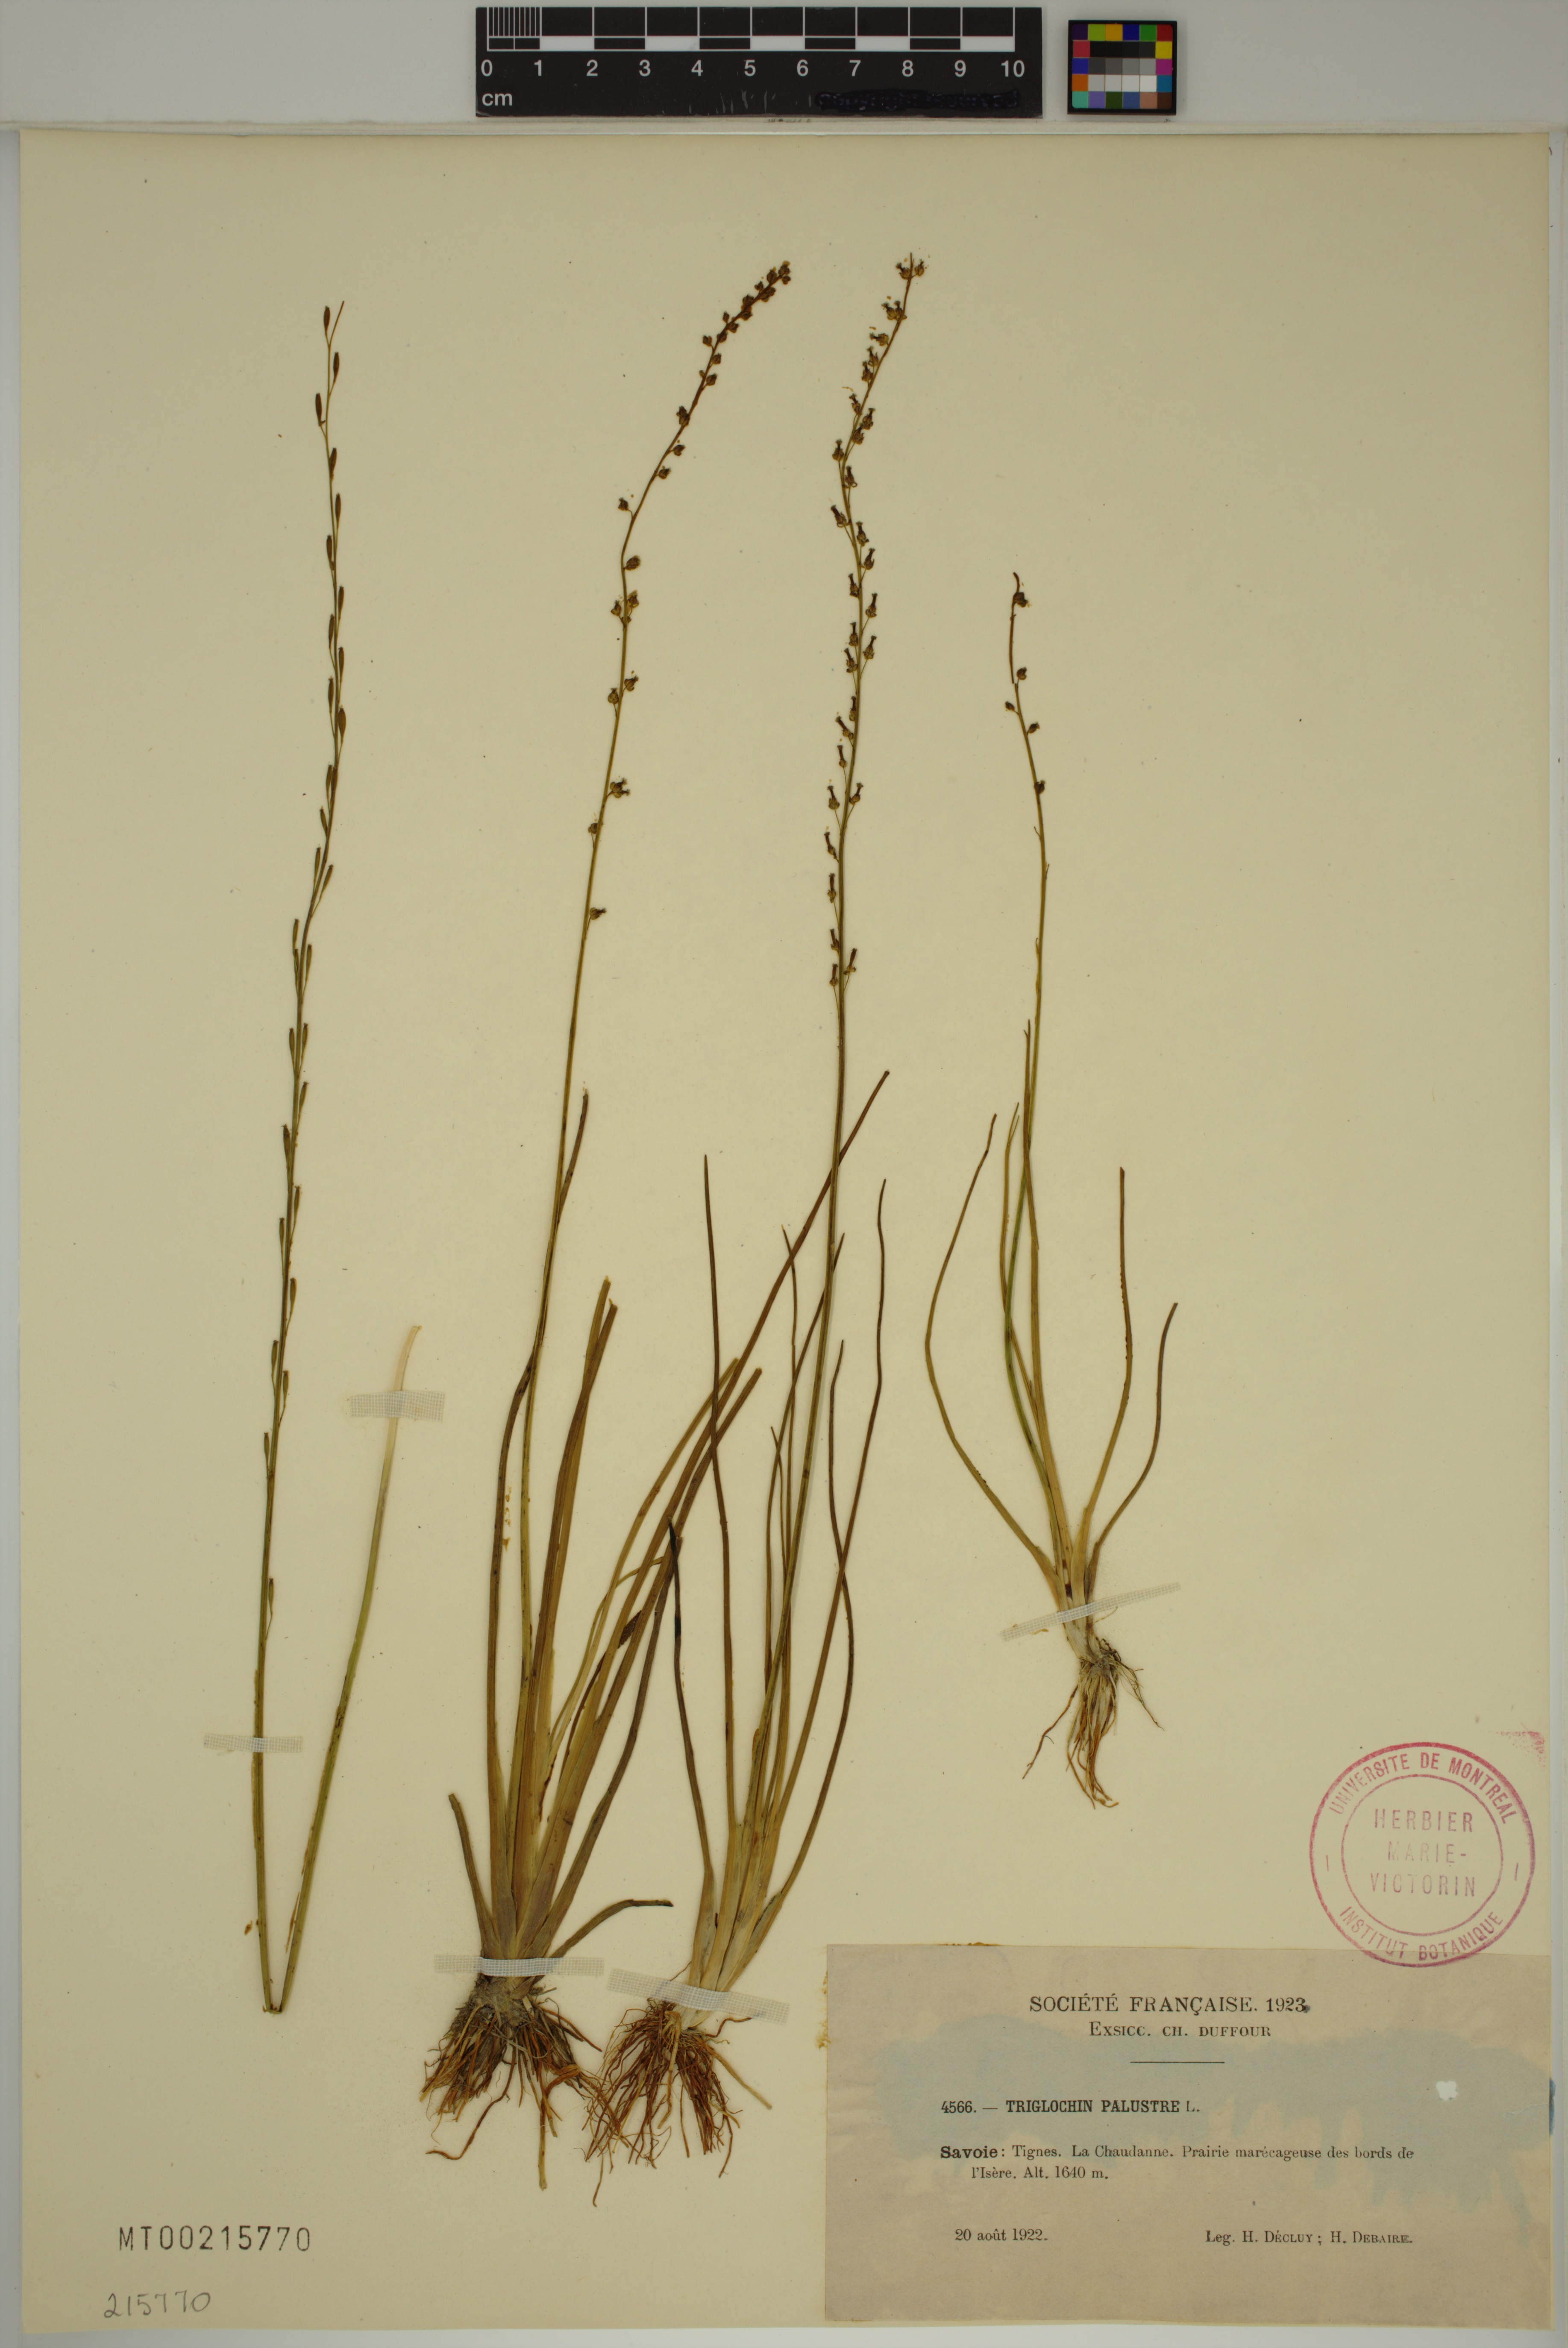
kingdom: Plantae
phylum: Tracheophyta
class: Liliopsida
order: Alismatales
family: Juncaginaceae
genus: Triglochin
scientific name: Triglochin palustris
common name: Marsh arrowgrass
